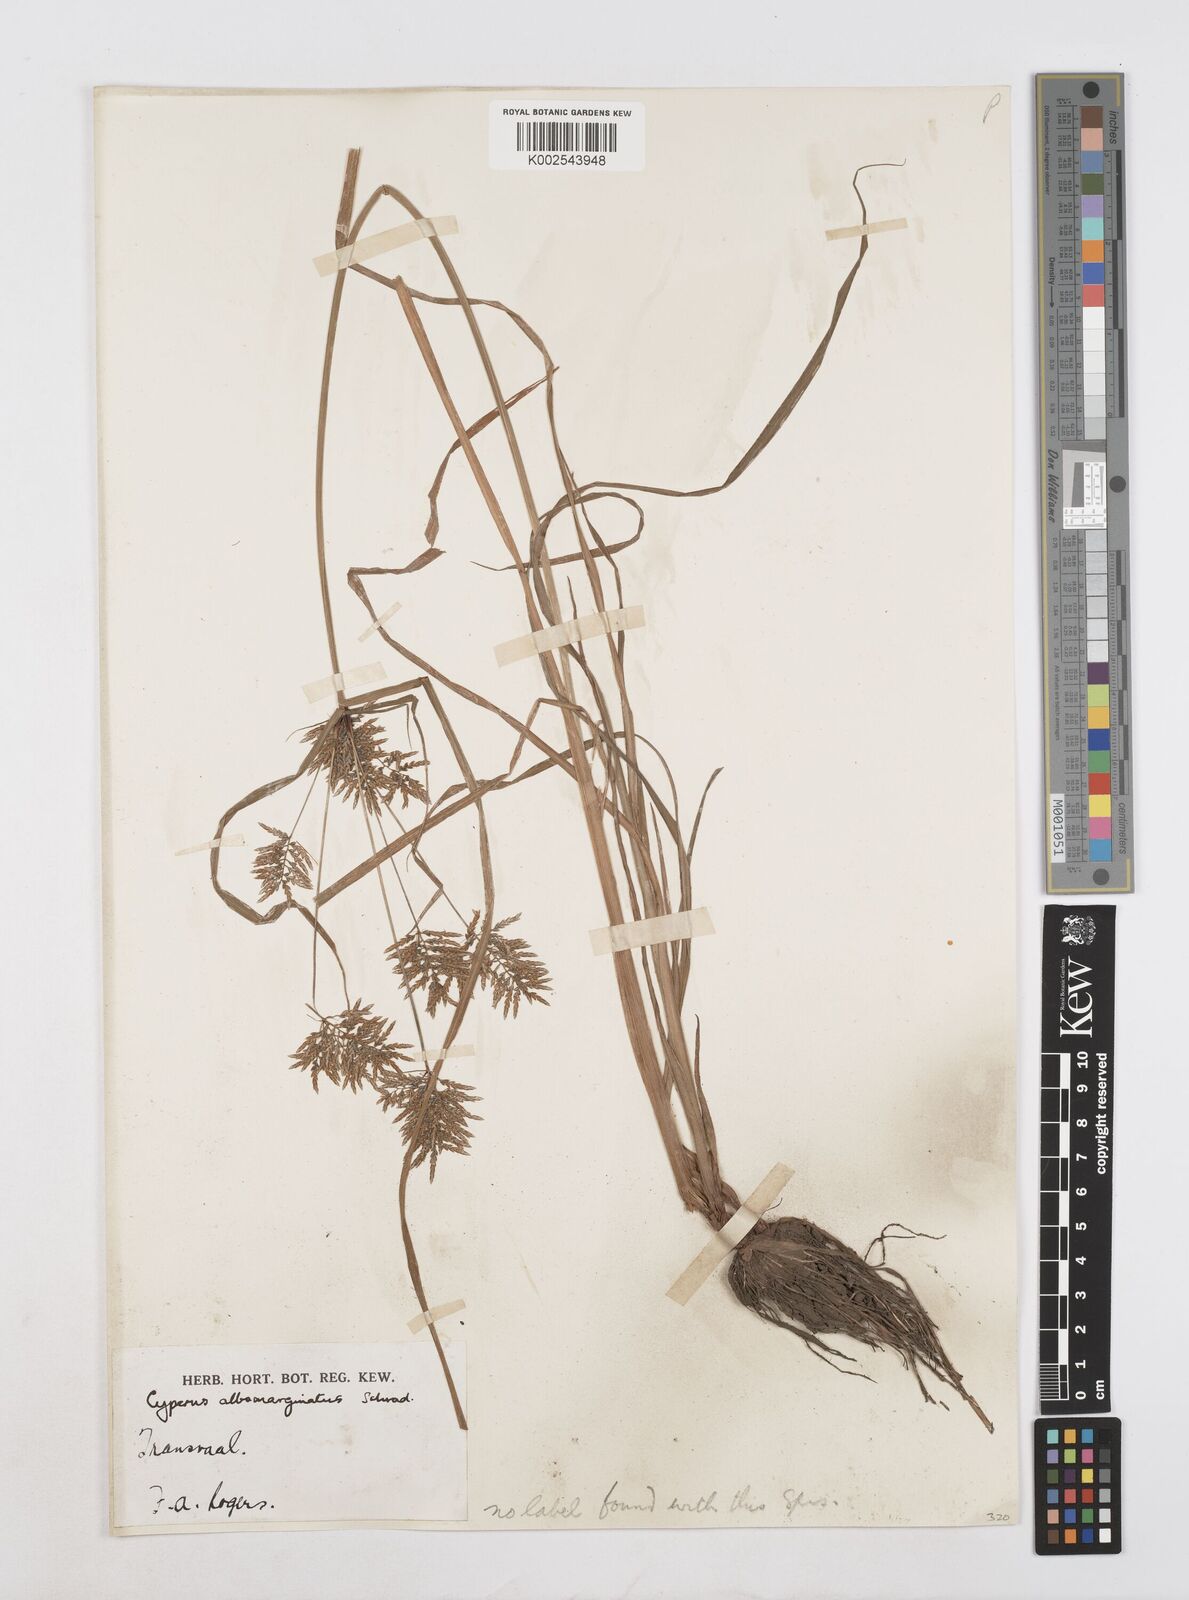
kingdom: Plantae
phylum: Tracheophyta
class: Liliopsida
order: Poales
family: Cyperaceae
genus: Cyperus
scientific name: Cyperus macrostachyos
